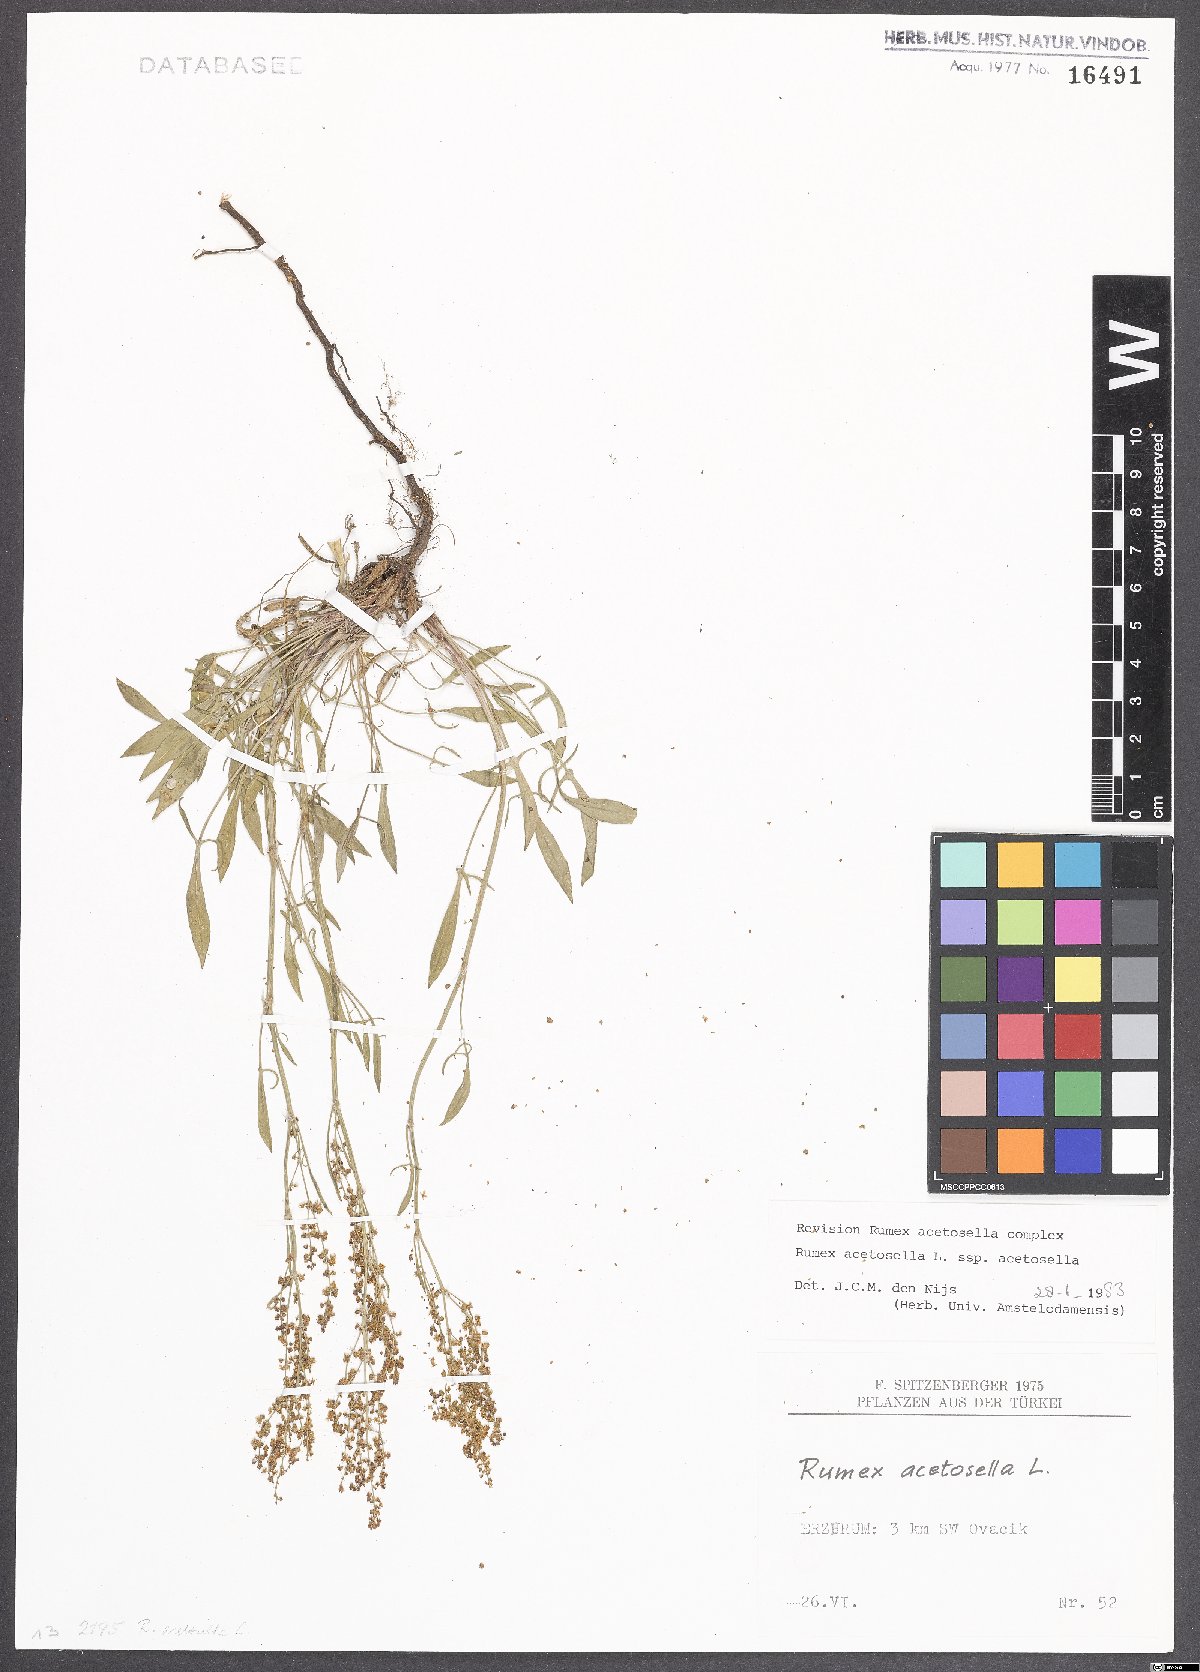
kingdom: Plantae
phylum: Tracheophyta
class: Magnoliopsida
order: Caryophyllales
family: Polygonaceae
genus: Rumex
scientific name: Rumex acetosella
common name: Common sheep sorrel
